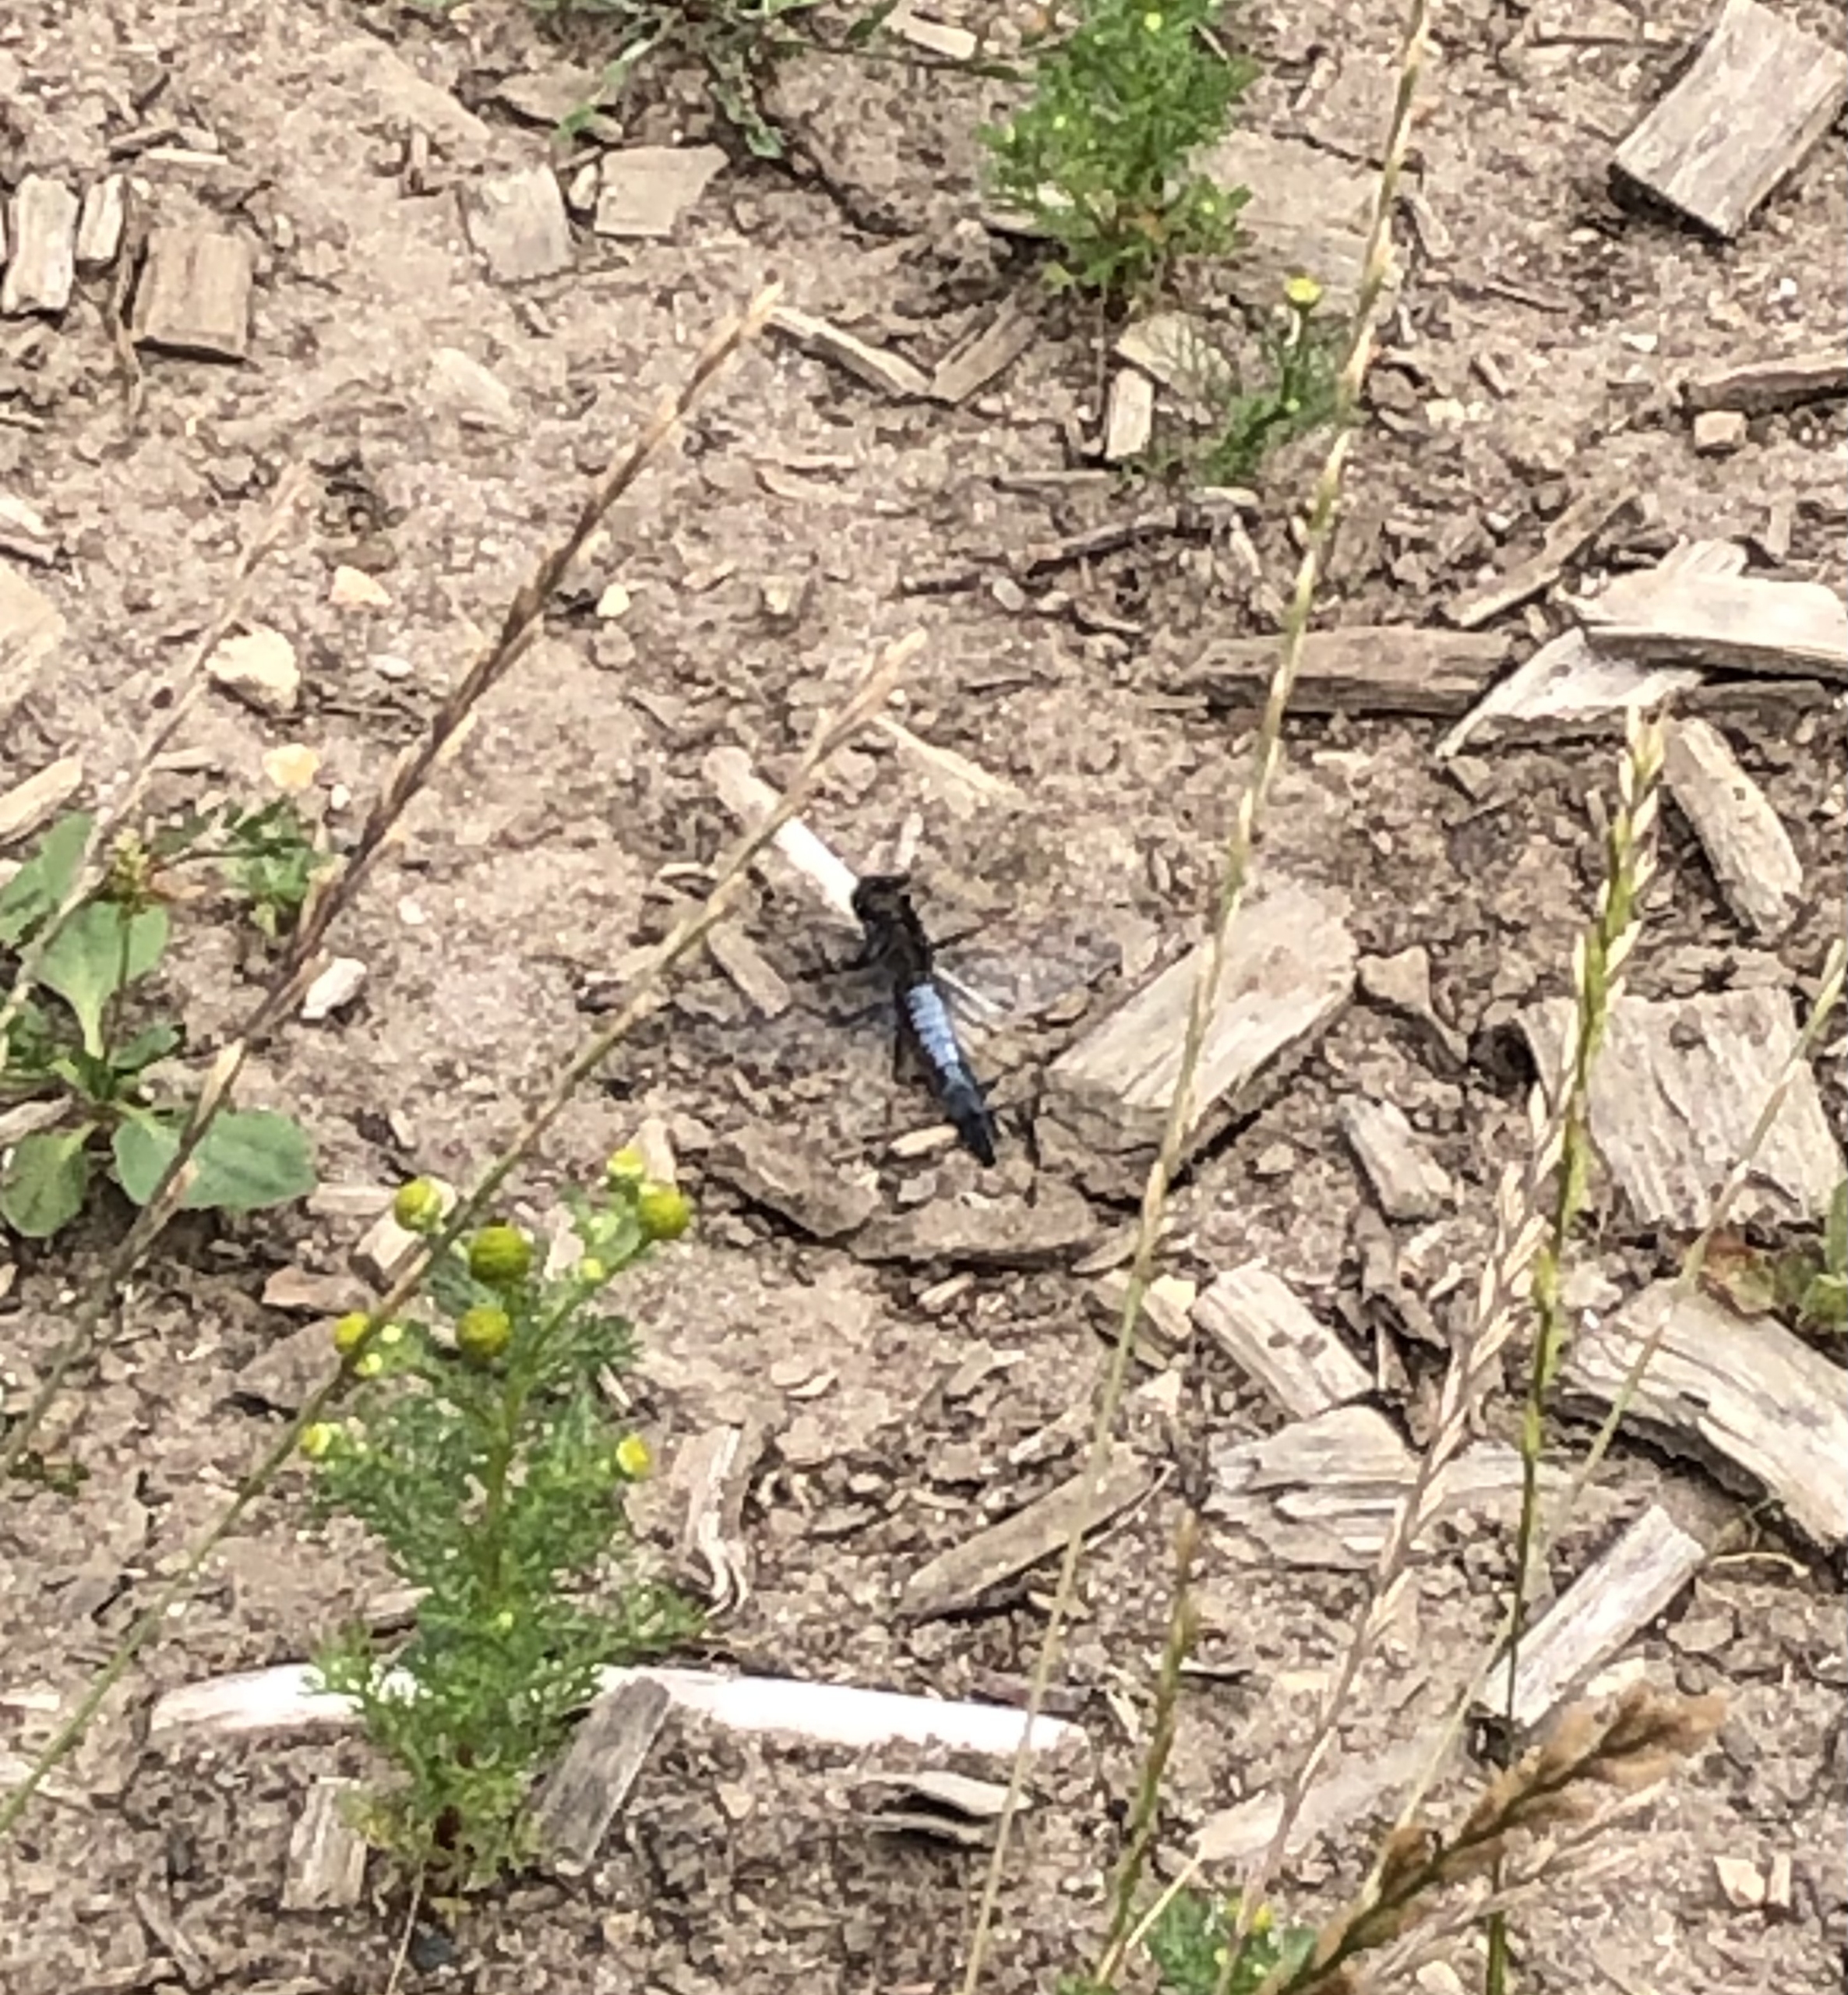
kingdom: Animalia
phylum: Arthropoda
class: Insecta
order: Odonata
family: Libellulidae
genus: Orthetrum
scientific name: Orthetrum cancellatum
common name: Stor blåpil
